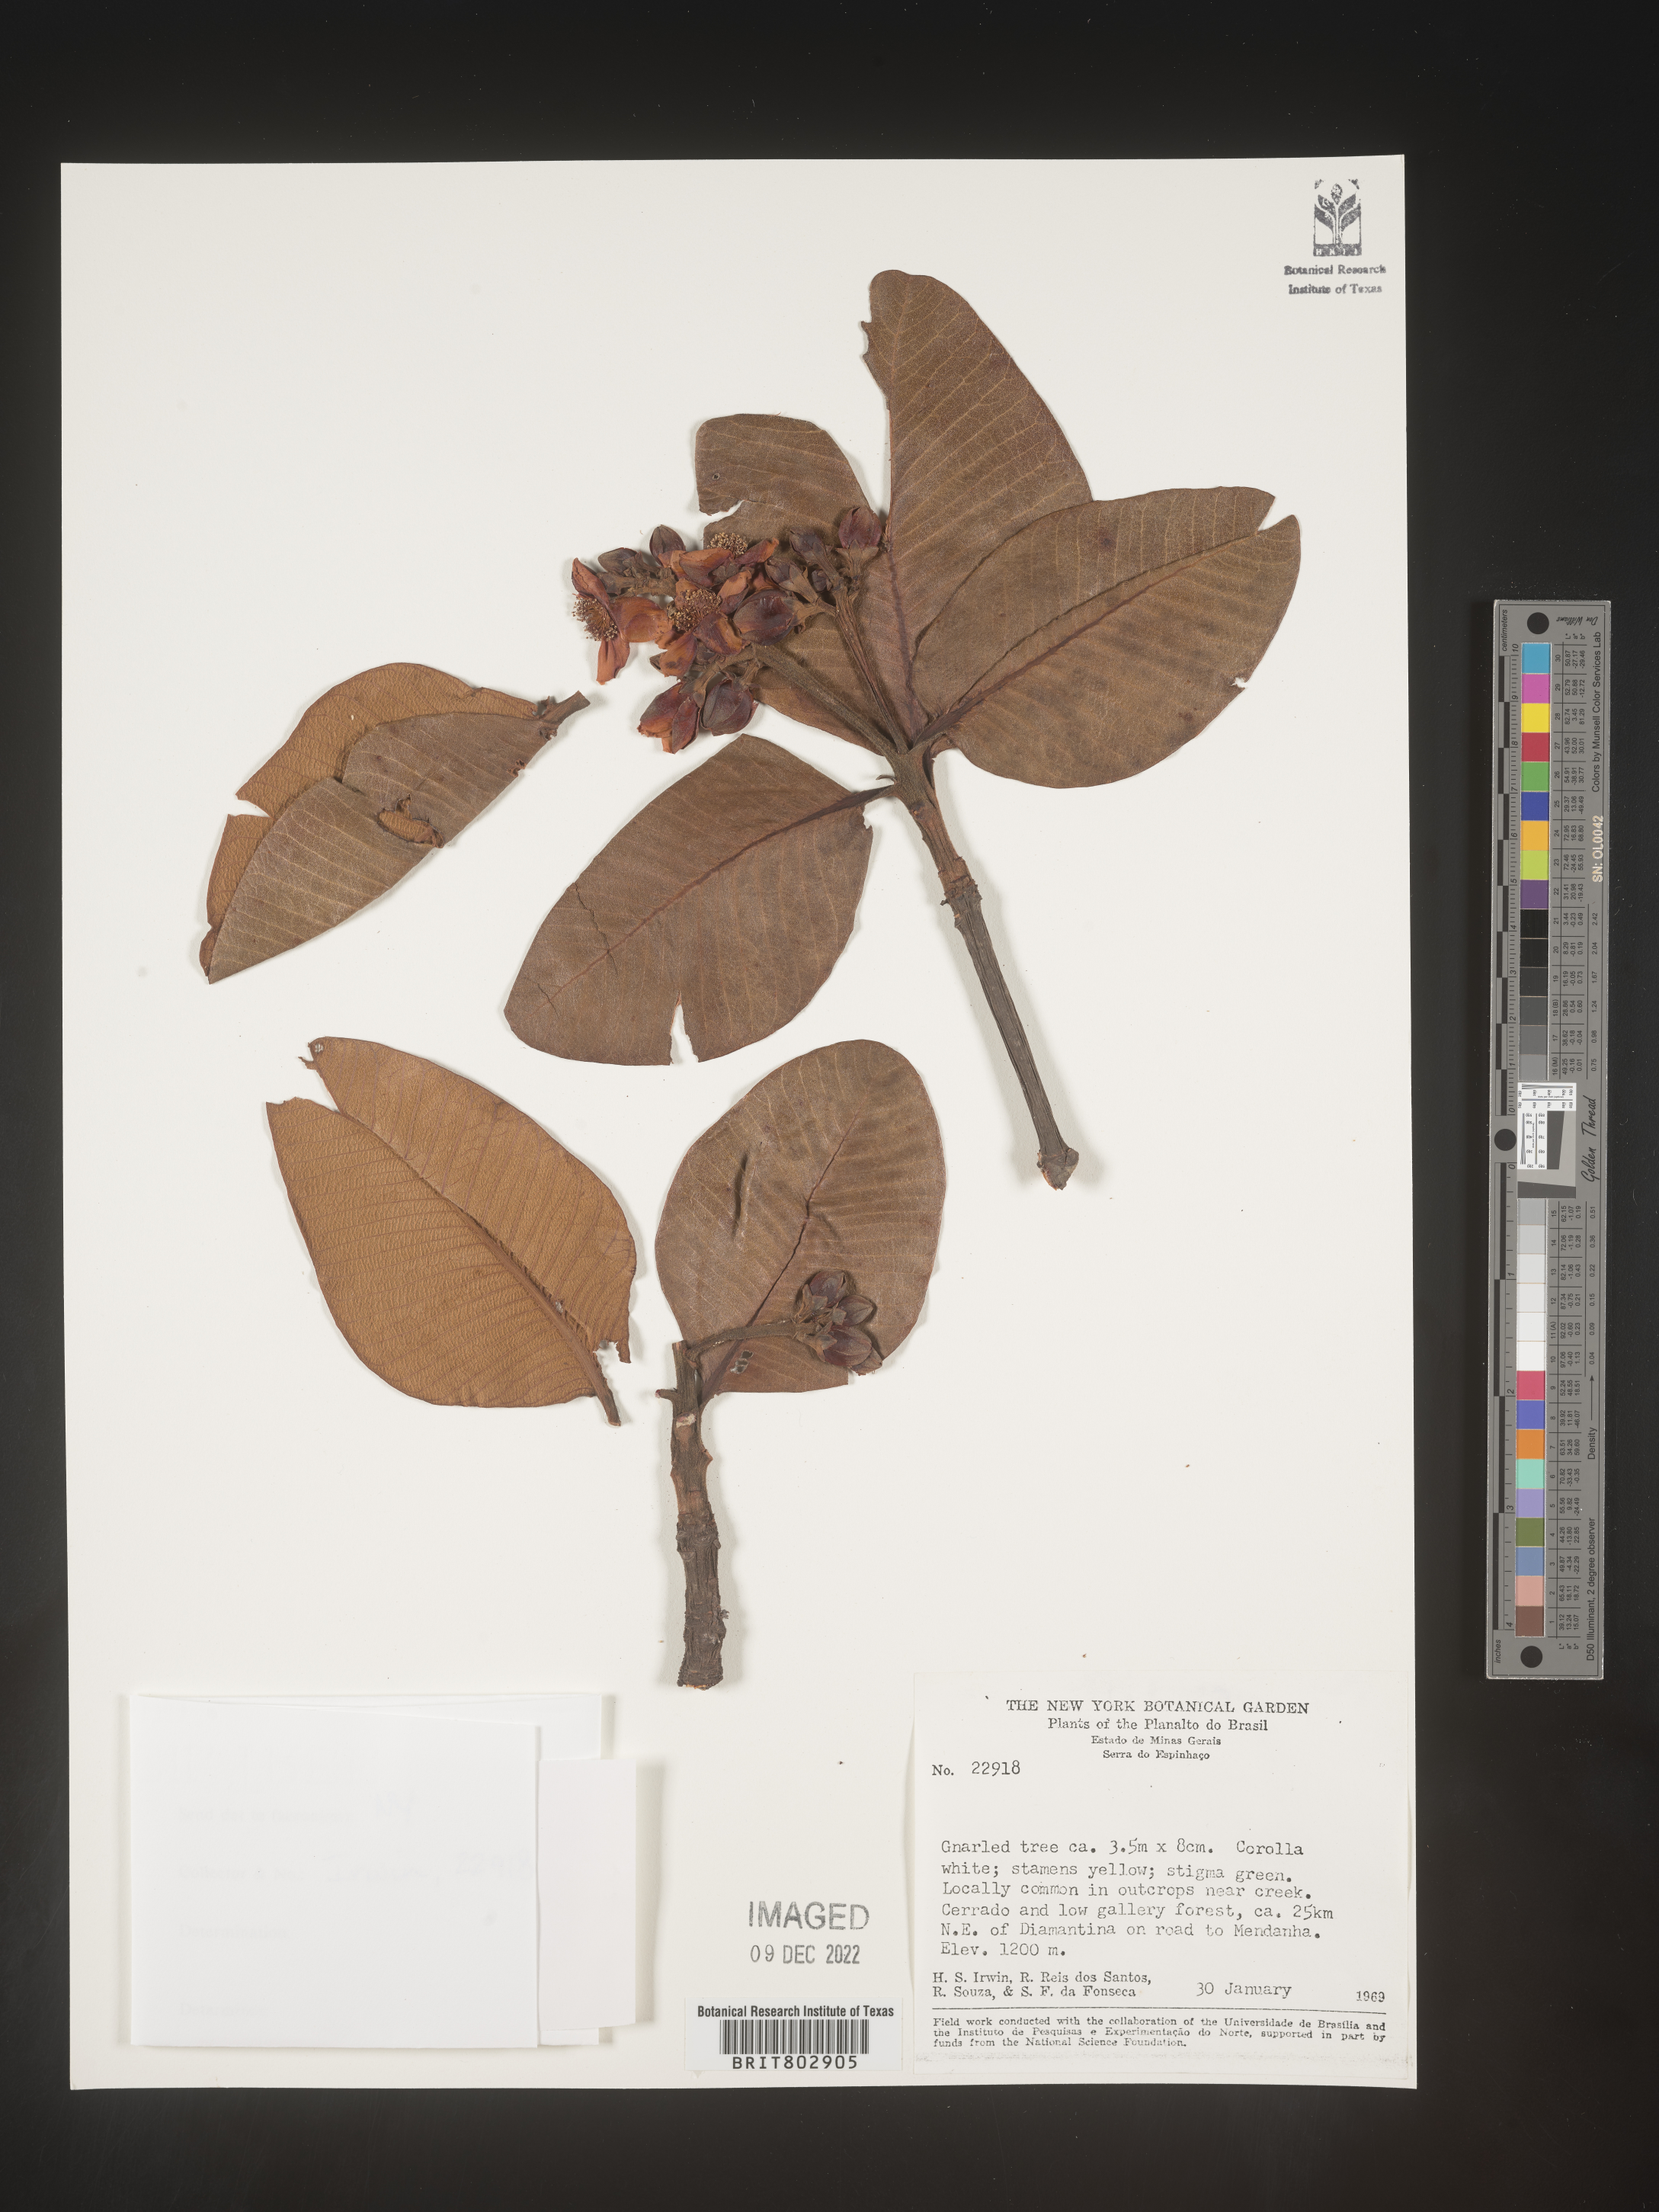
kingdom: Plantae
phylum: Tracheophyta
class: Magnoliopsida
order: Malpighiales
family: Calophyllaceae
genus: Kielmeyera
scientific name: Kielmeyera
